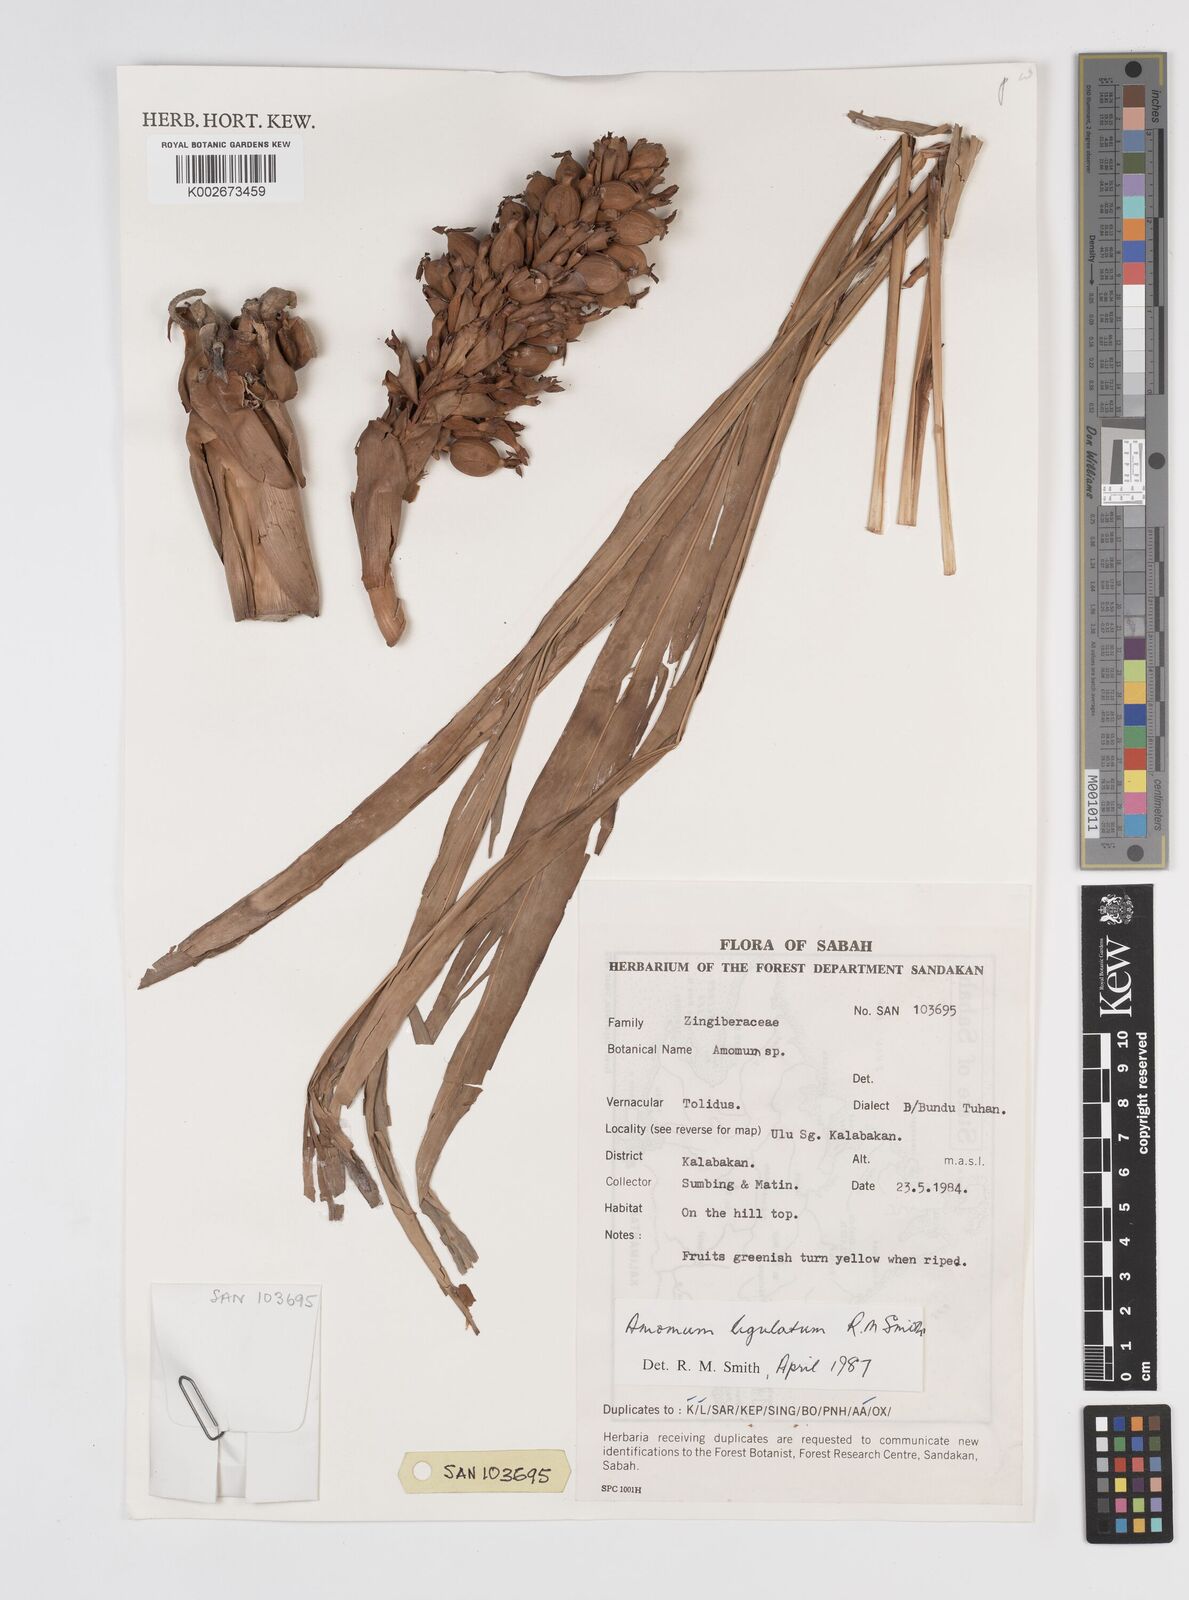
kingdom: Plantae
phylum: Tracheophyta
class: Liliopsida
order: Zingiberales
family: Zingiberaceae
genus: Sulettaria
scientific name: Sulettaria ligulata
